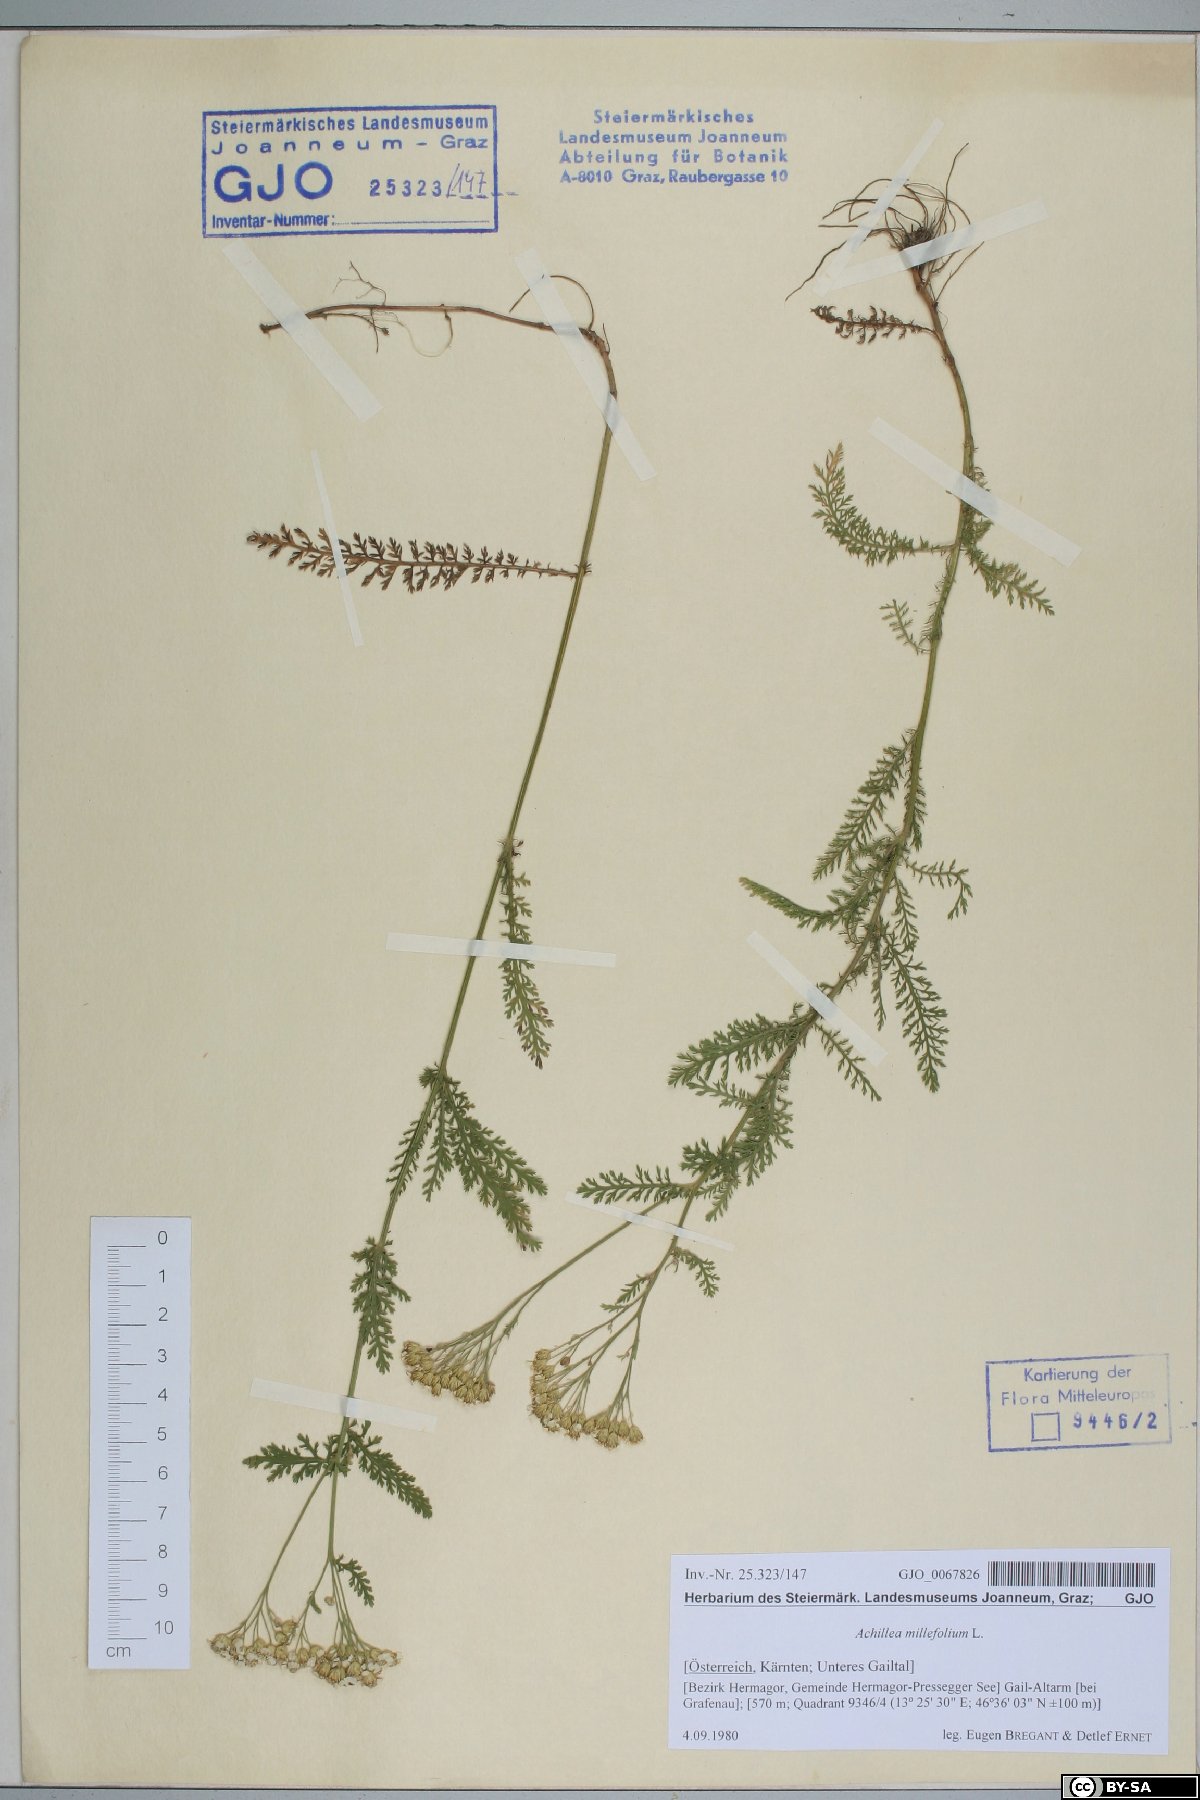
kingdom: Plantae
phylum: Tracheophyta
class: Magnoliopsida
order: Asterales
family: Asteraceae
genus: Achillea
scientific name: Achillea millefolium
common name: Yarrow
